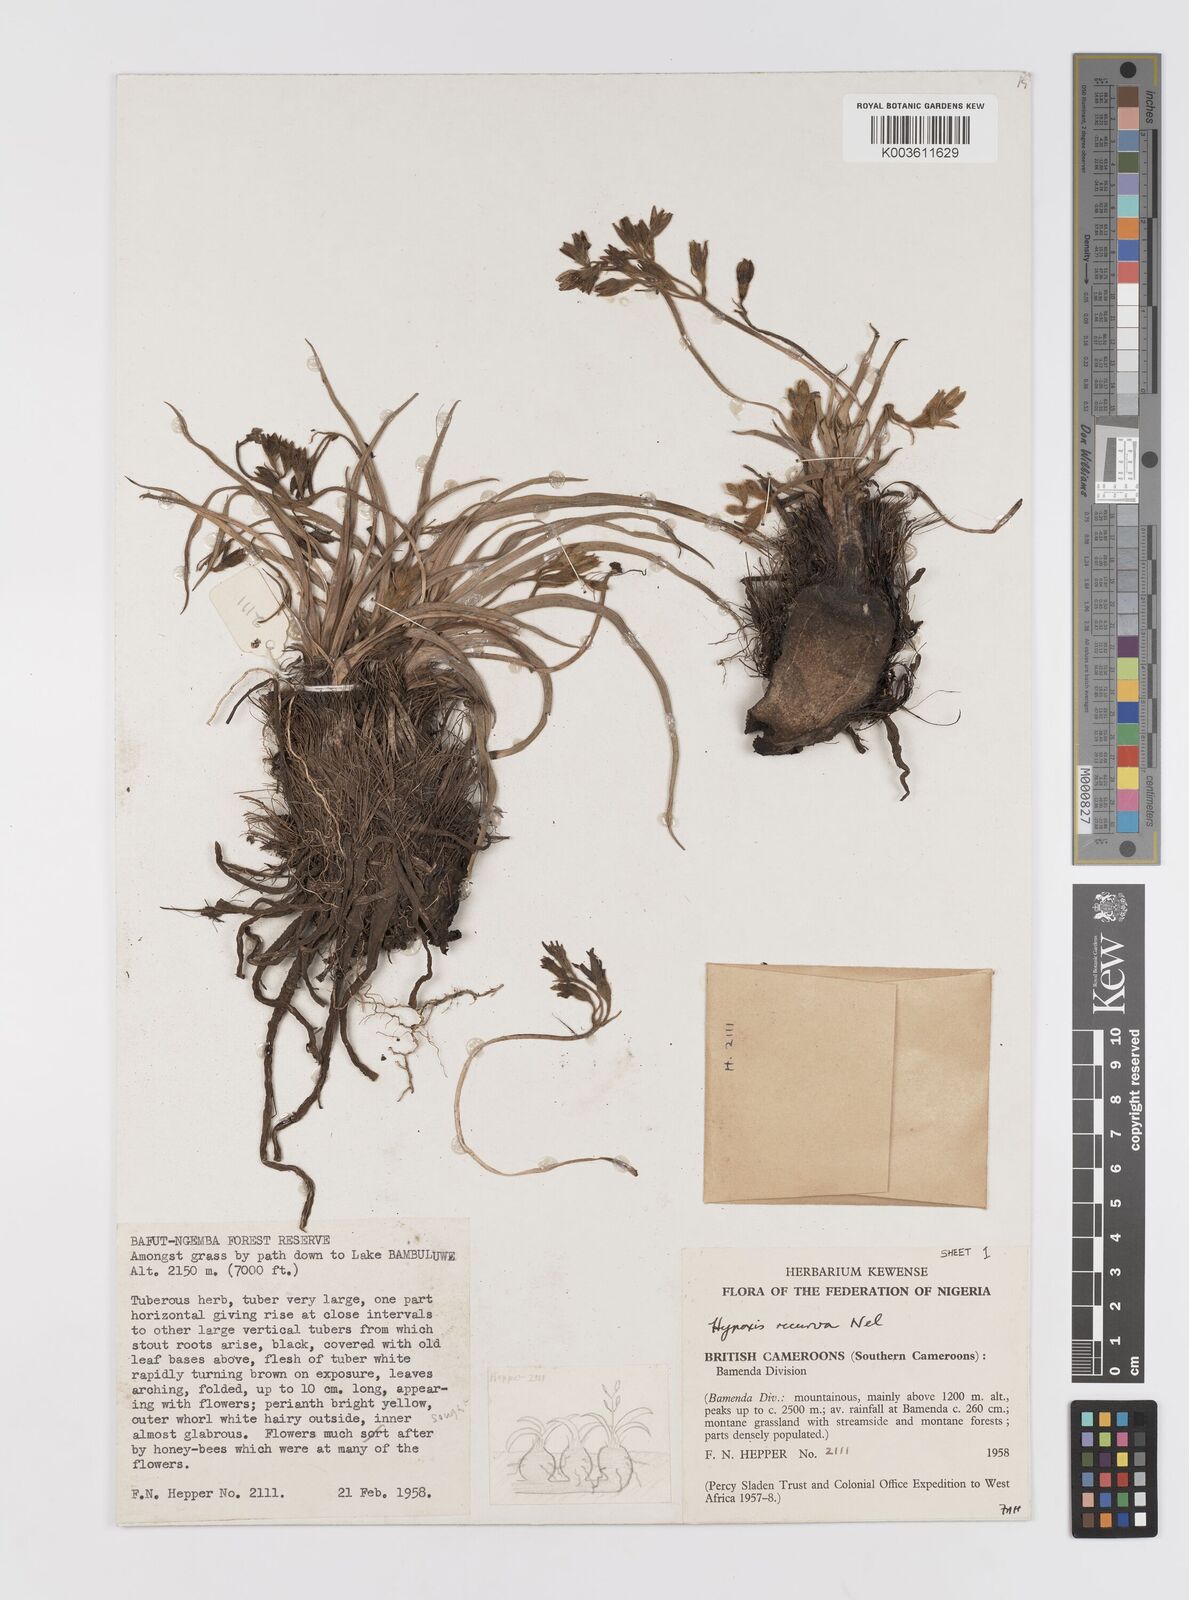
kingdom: Plantae
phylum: Tracheophyta
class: Liliopsida
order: Asparagales
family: Hypoxidaceae
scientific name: Hypoxidaceae
